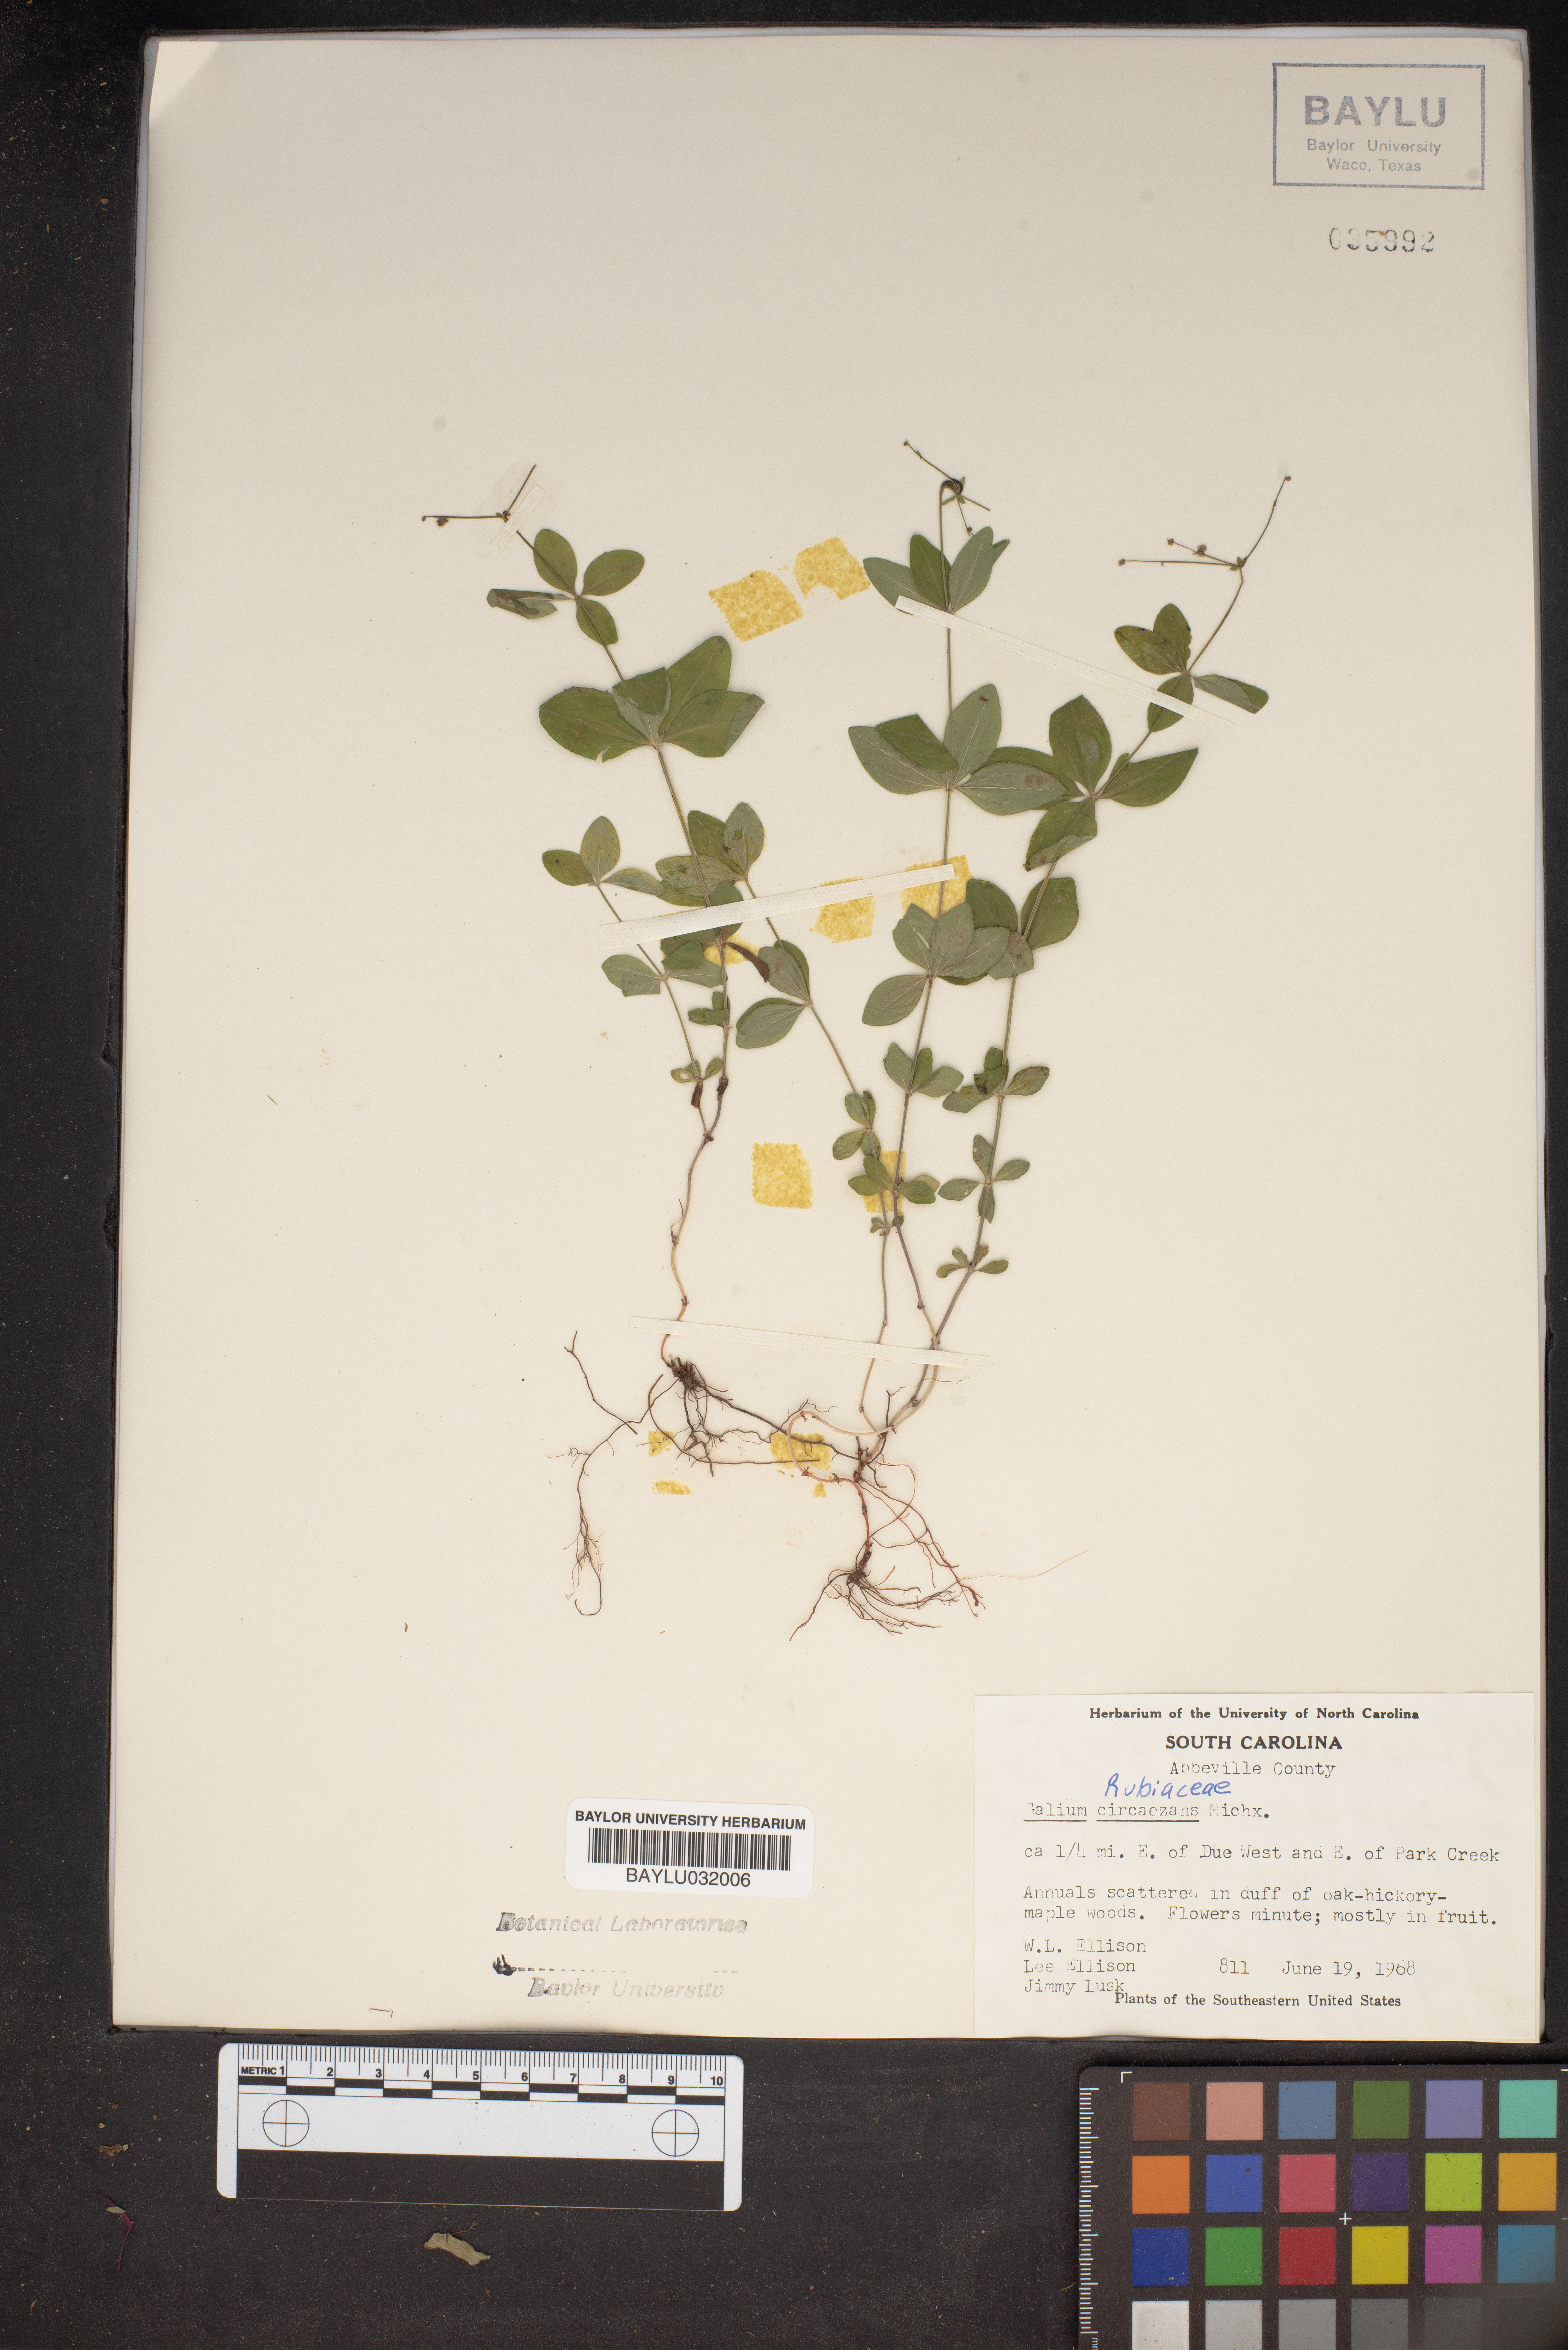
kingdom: Plantae
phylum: Tracheophyta
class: Magnoliopsida
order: Gentianales
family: Rubiaceae
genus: Galium
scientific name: Galium circaezans
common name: Forest bedstraw
